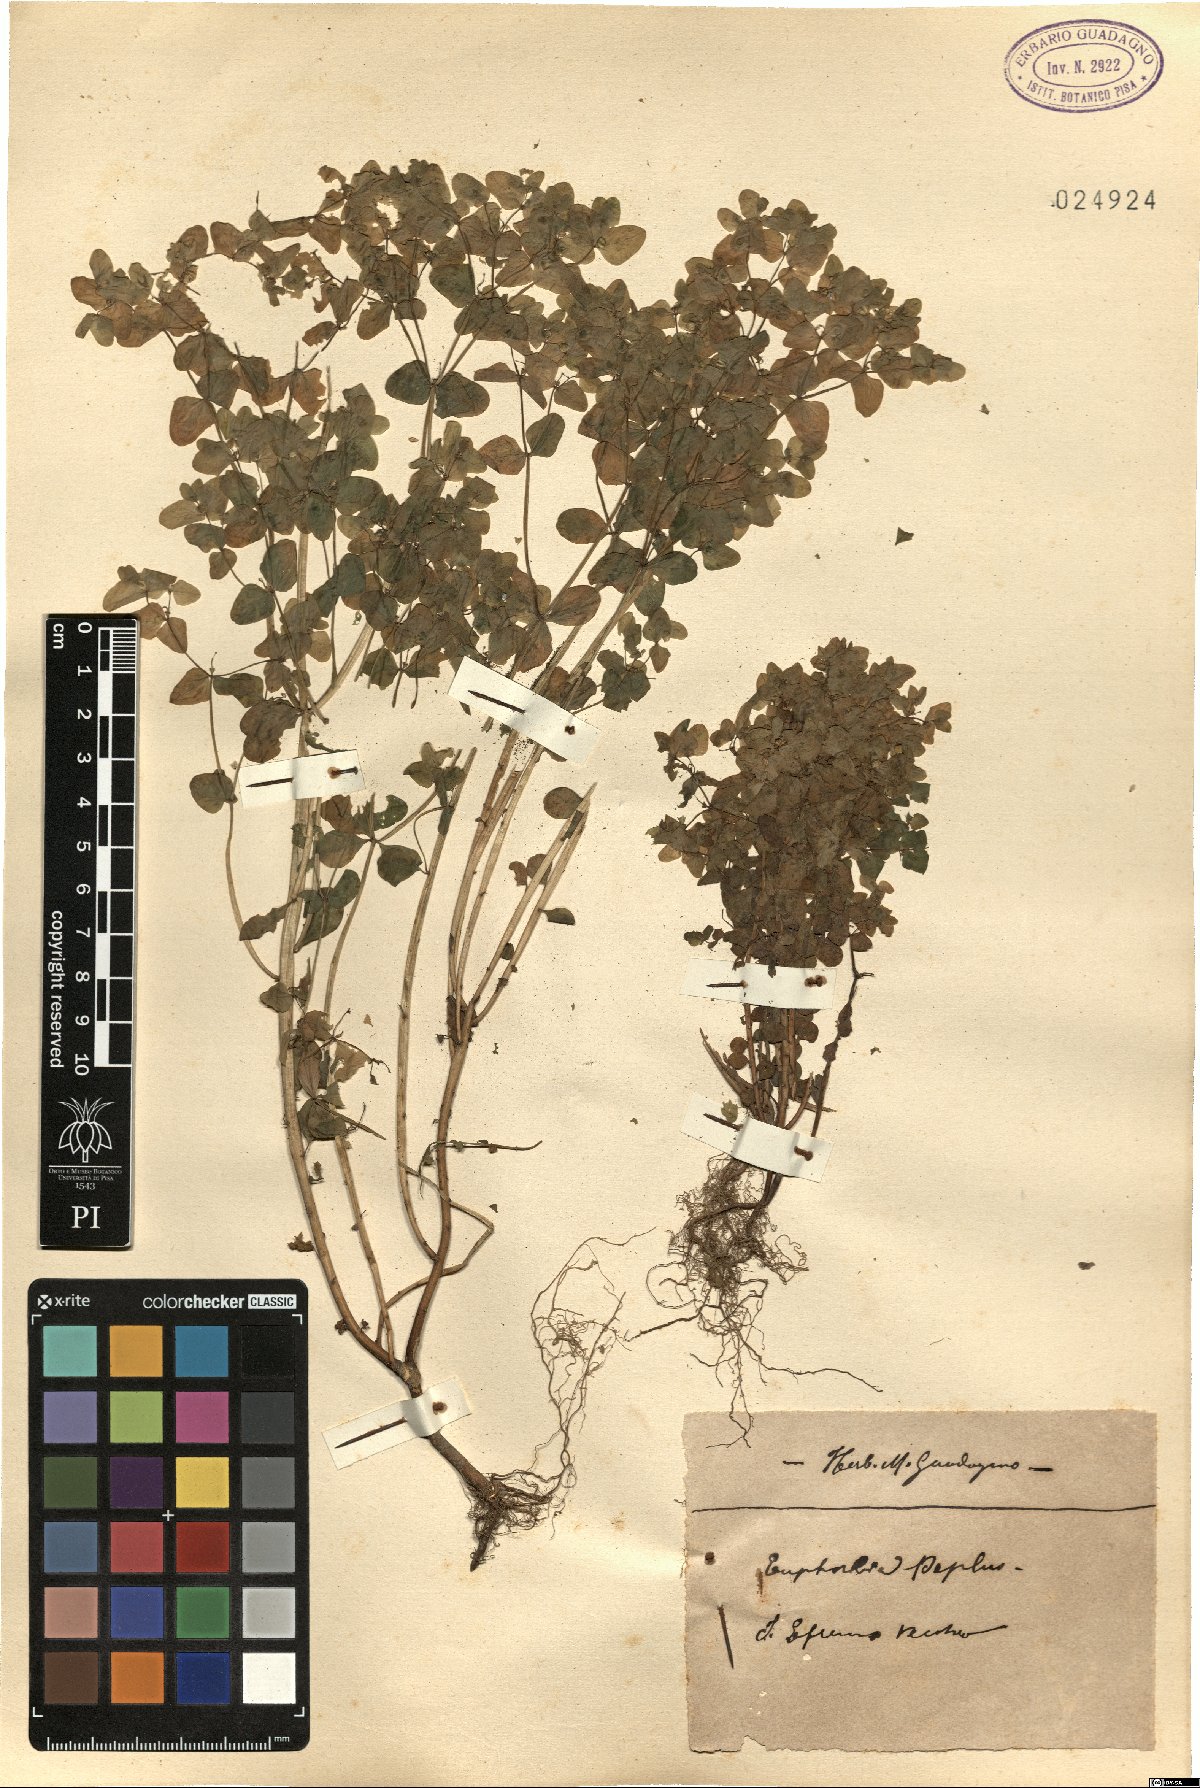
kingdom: Plantae
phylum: Tracheophyta
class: Magnoliopsida
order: Malpighiales
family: Euphorbiaceae
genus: Euphorbia
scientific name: Euphorbia peplus
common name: Petty spurge
